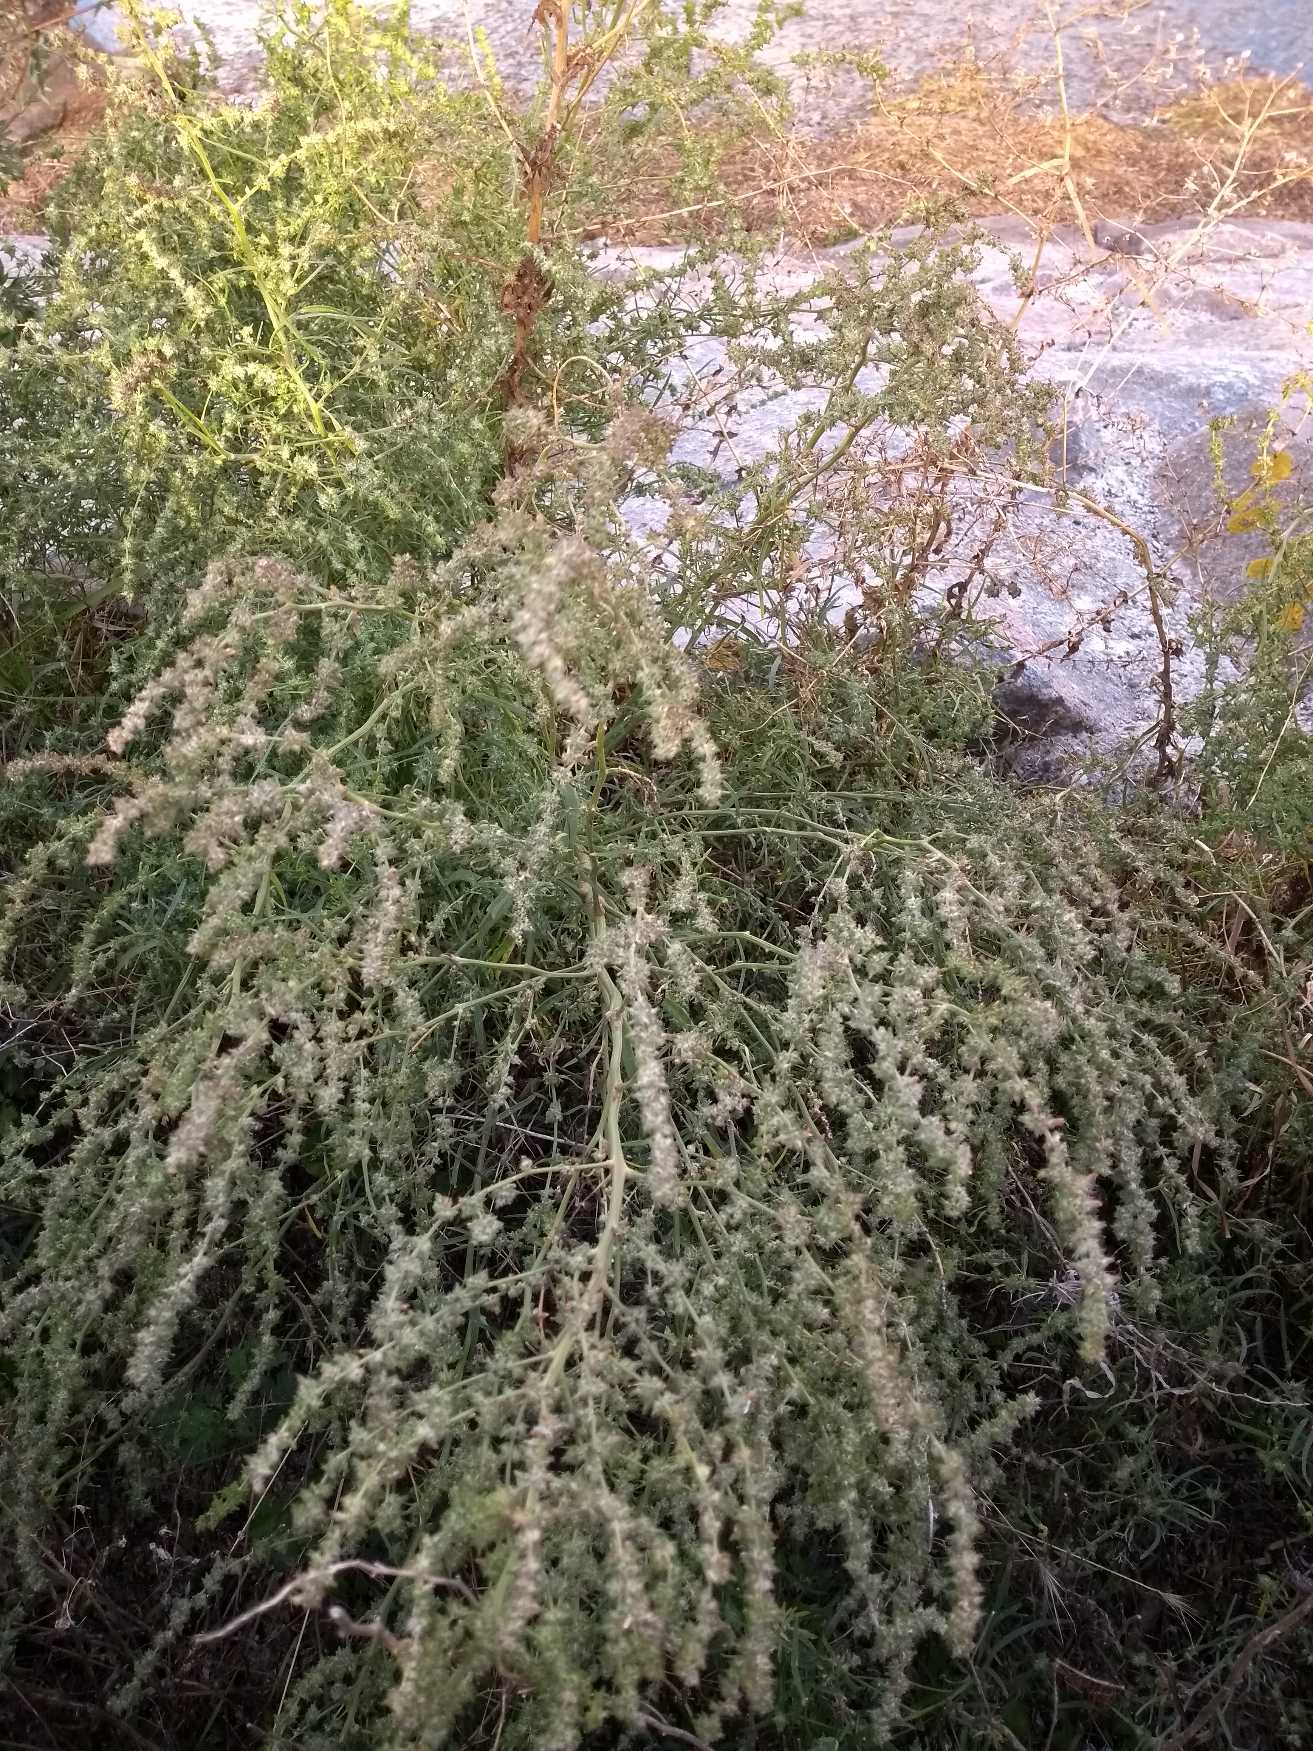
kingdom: Plantae
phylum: Tracheophyta
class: Magnoliopsida
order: Caryophyllales
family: Amaranthaceae
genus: Atriplex
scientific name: Atriplex littoralis
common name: Strand-mælde
